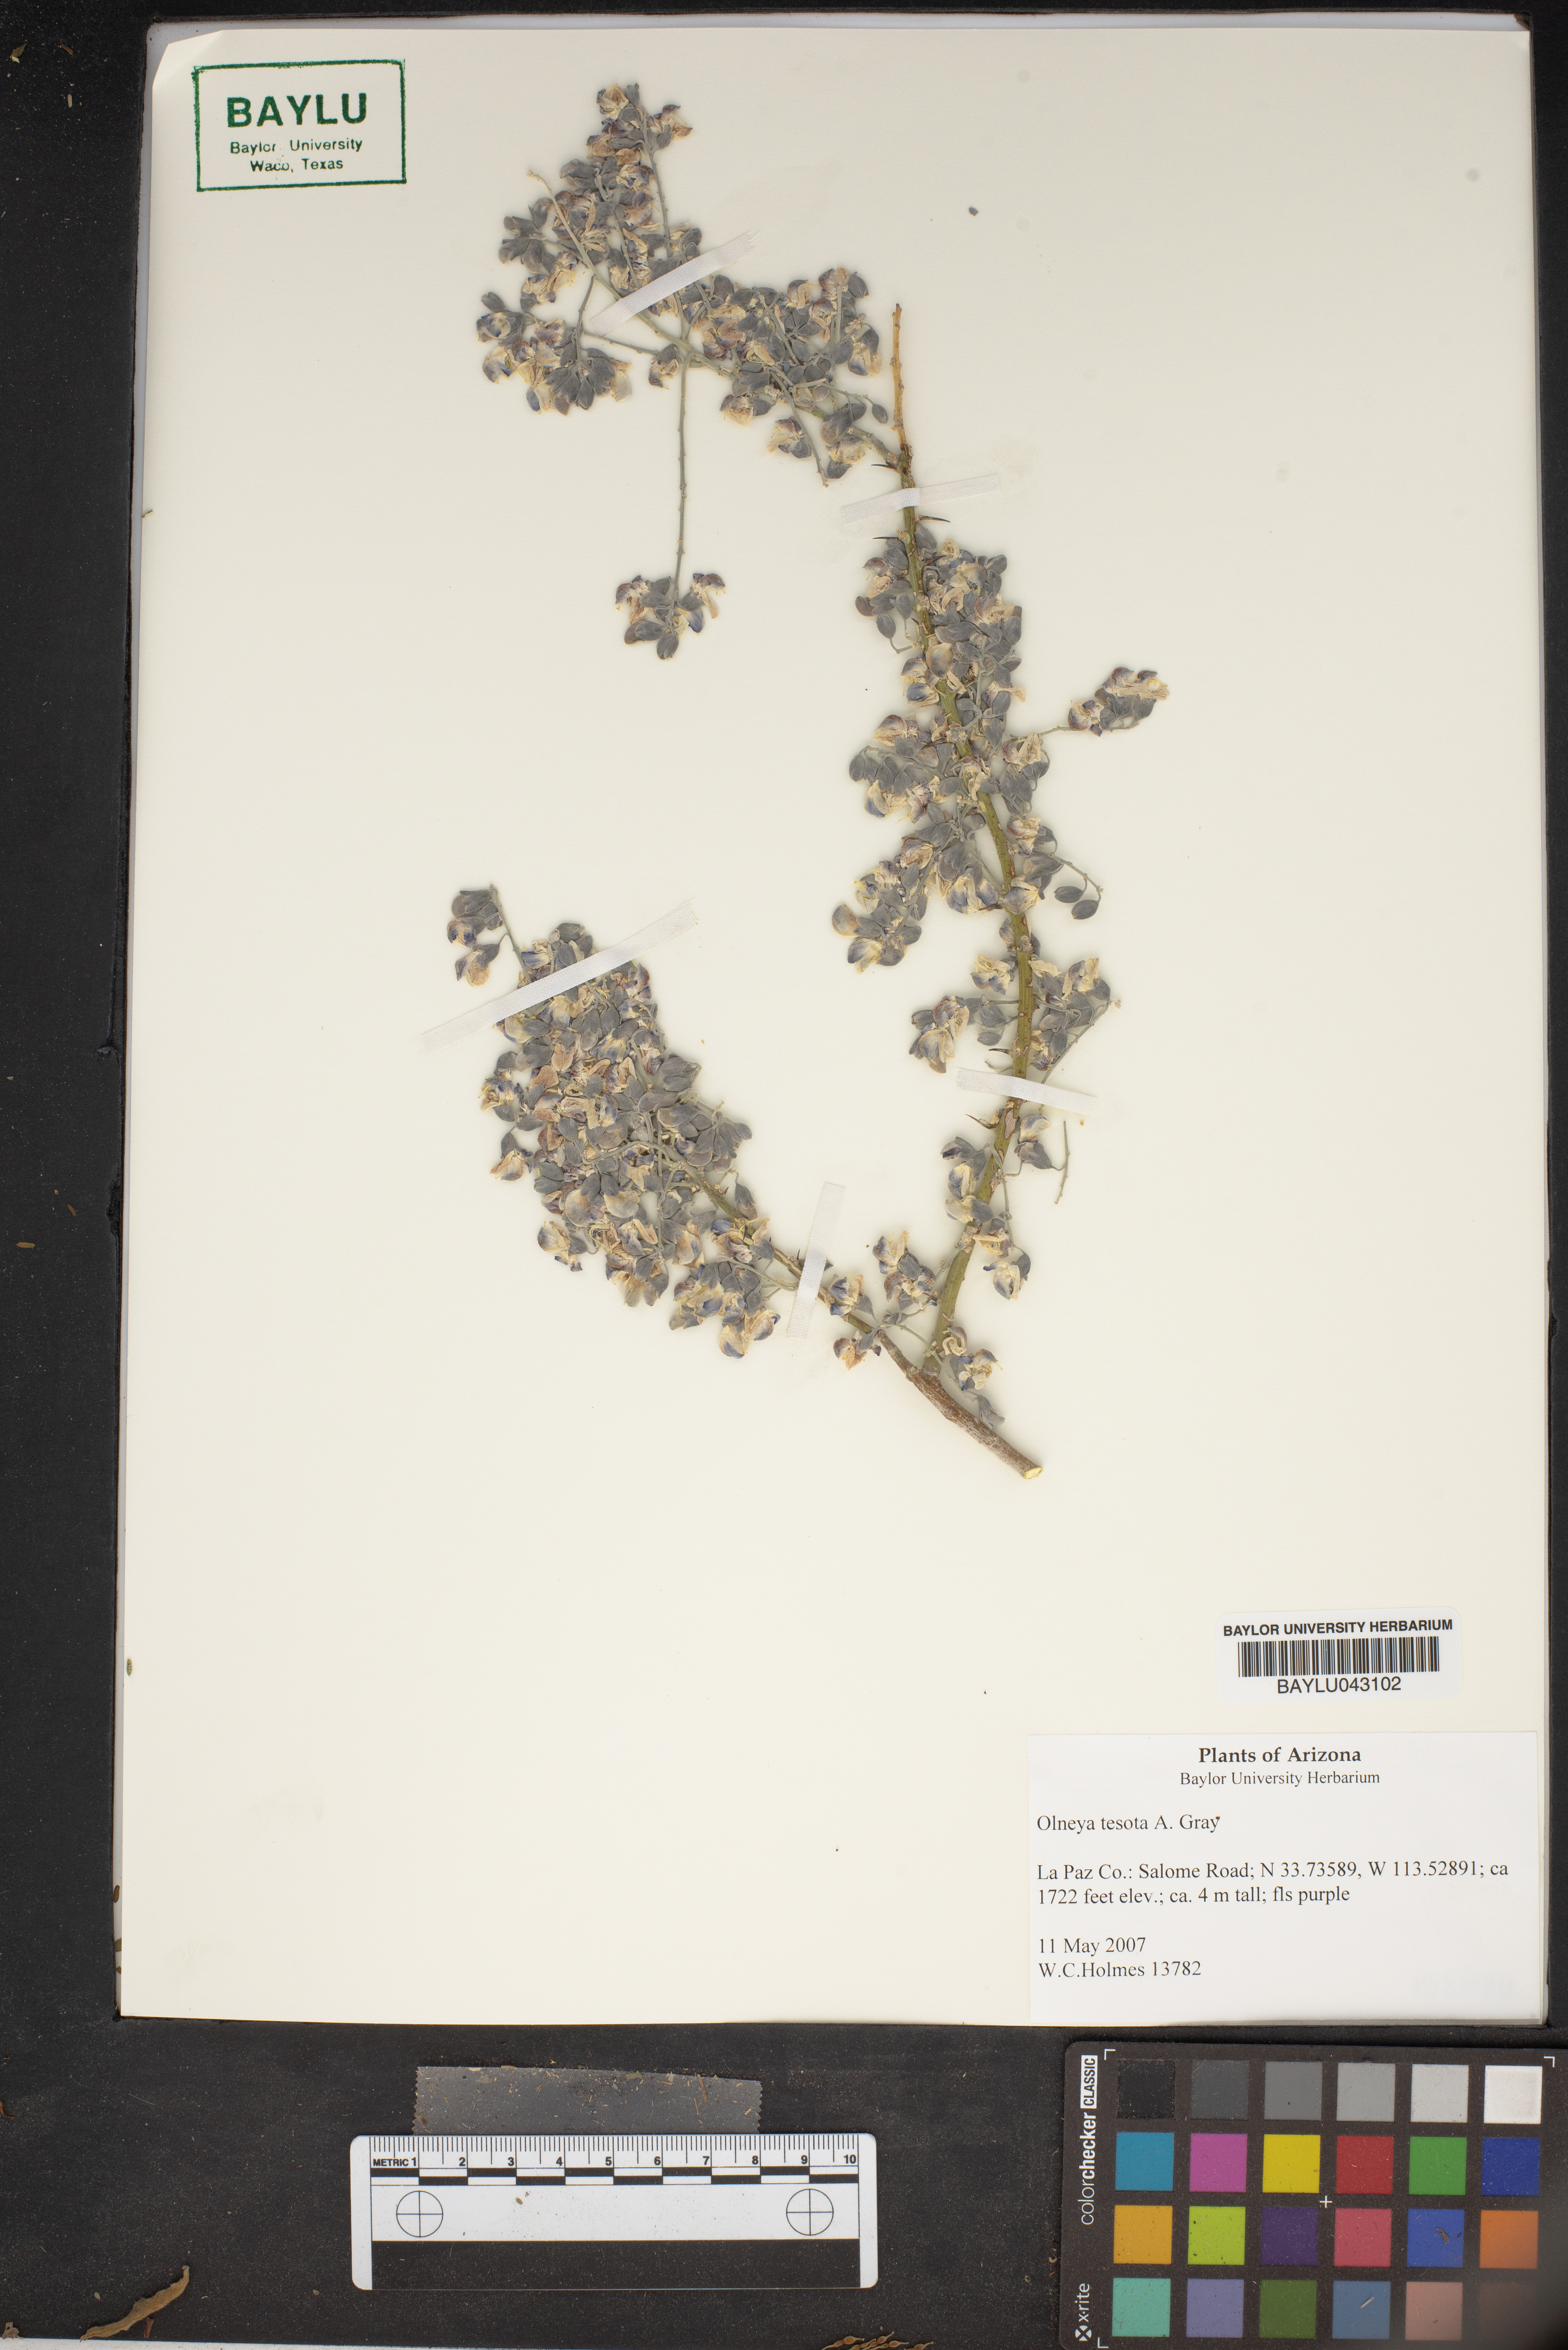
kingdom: Plantae
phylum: Tracheophyta
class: Magnoliopsida
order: Fabales
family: Fabaceae
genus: Olneya
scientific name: Olneya tesota
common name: Desert ironwood
